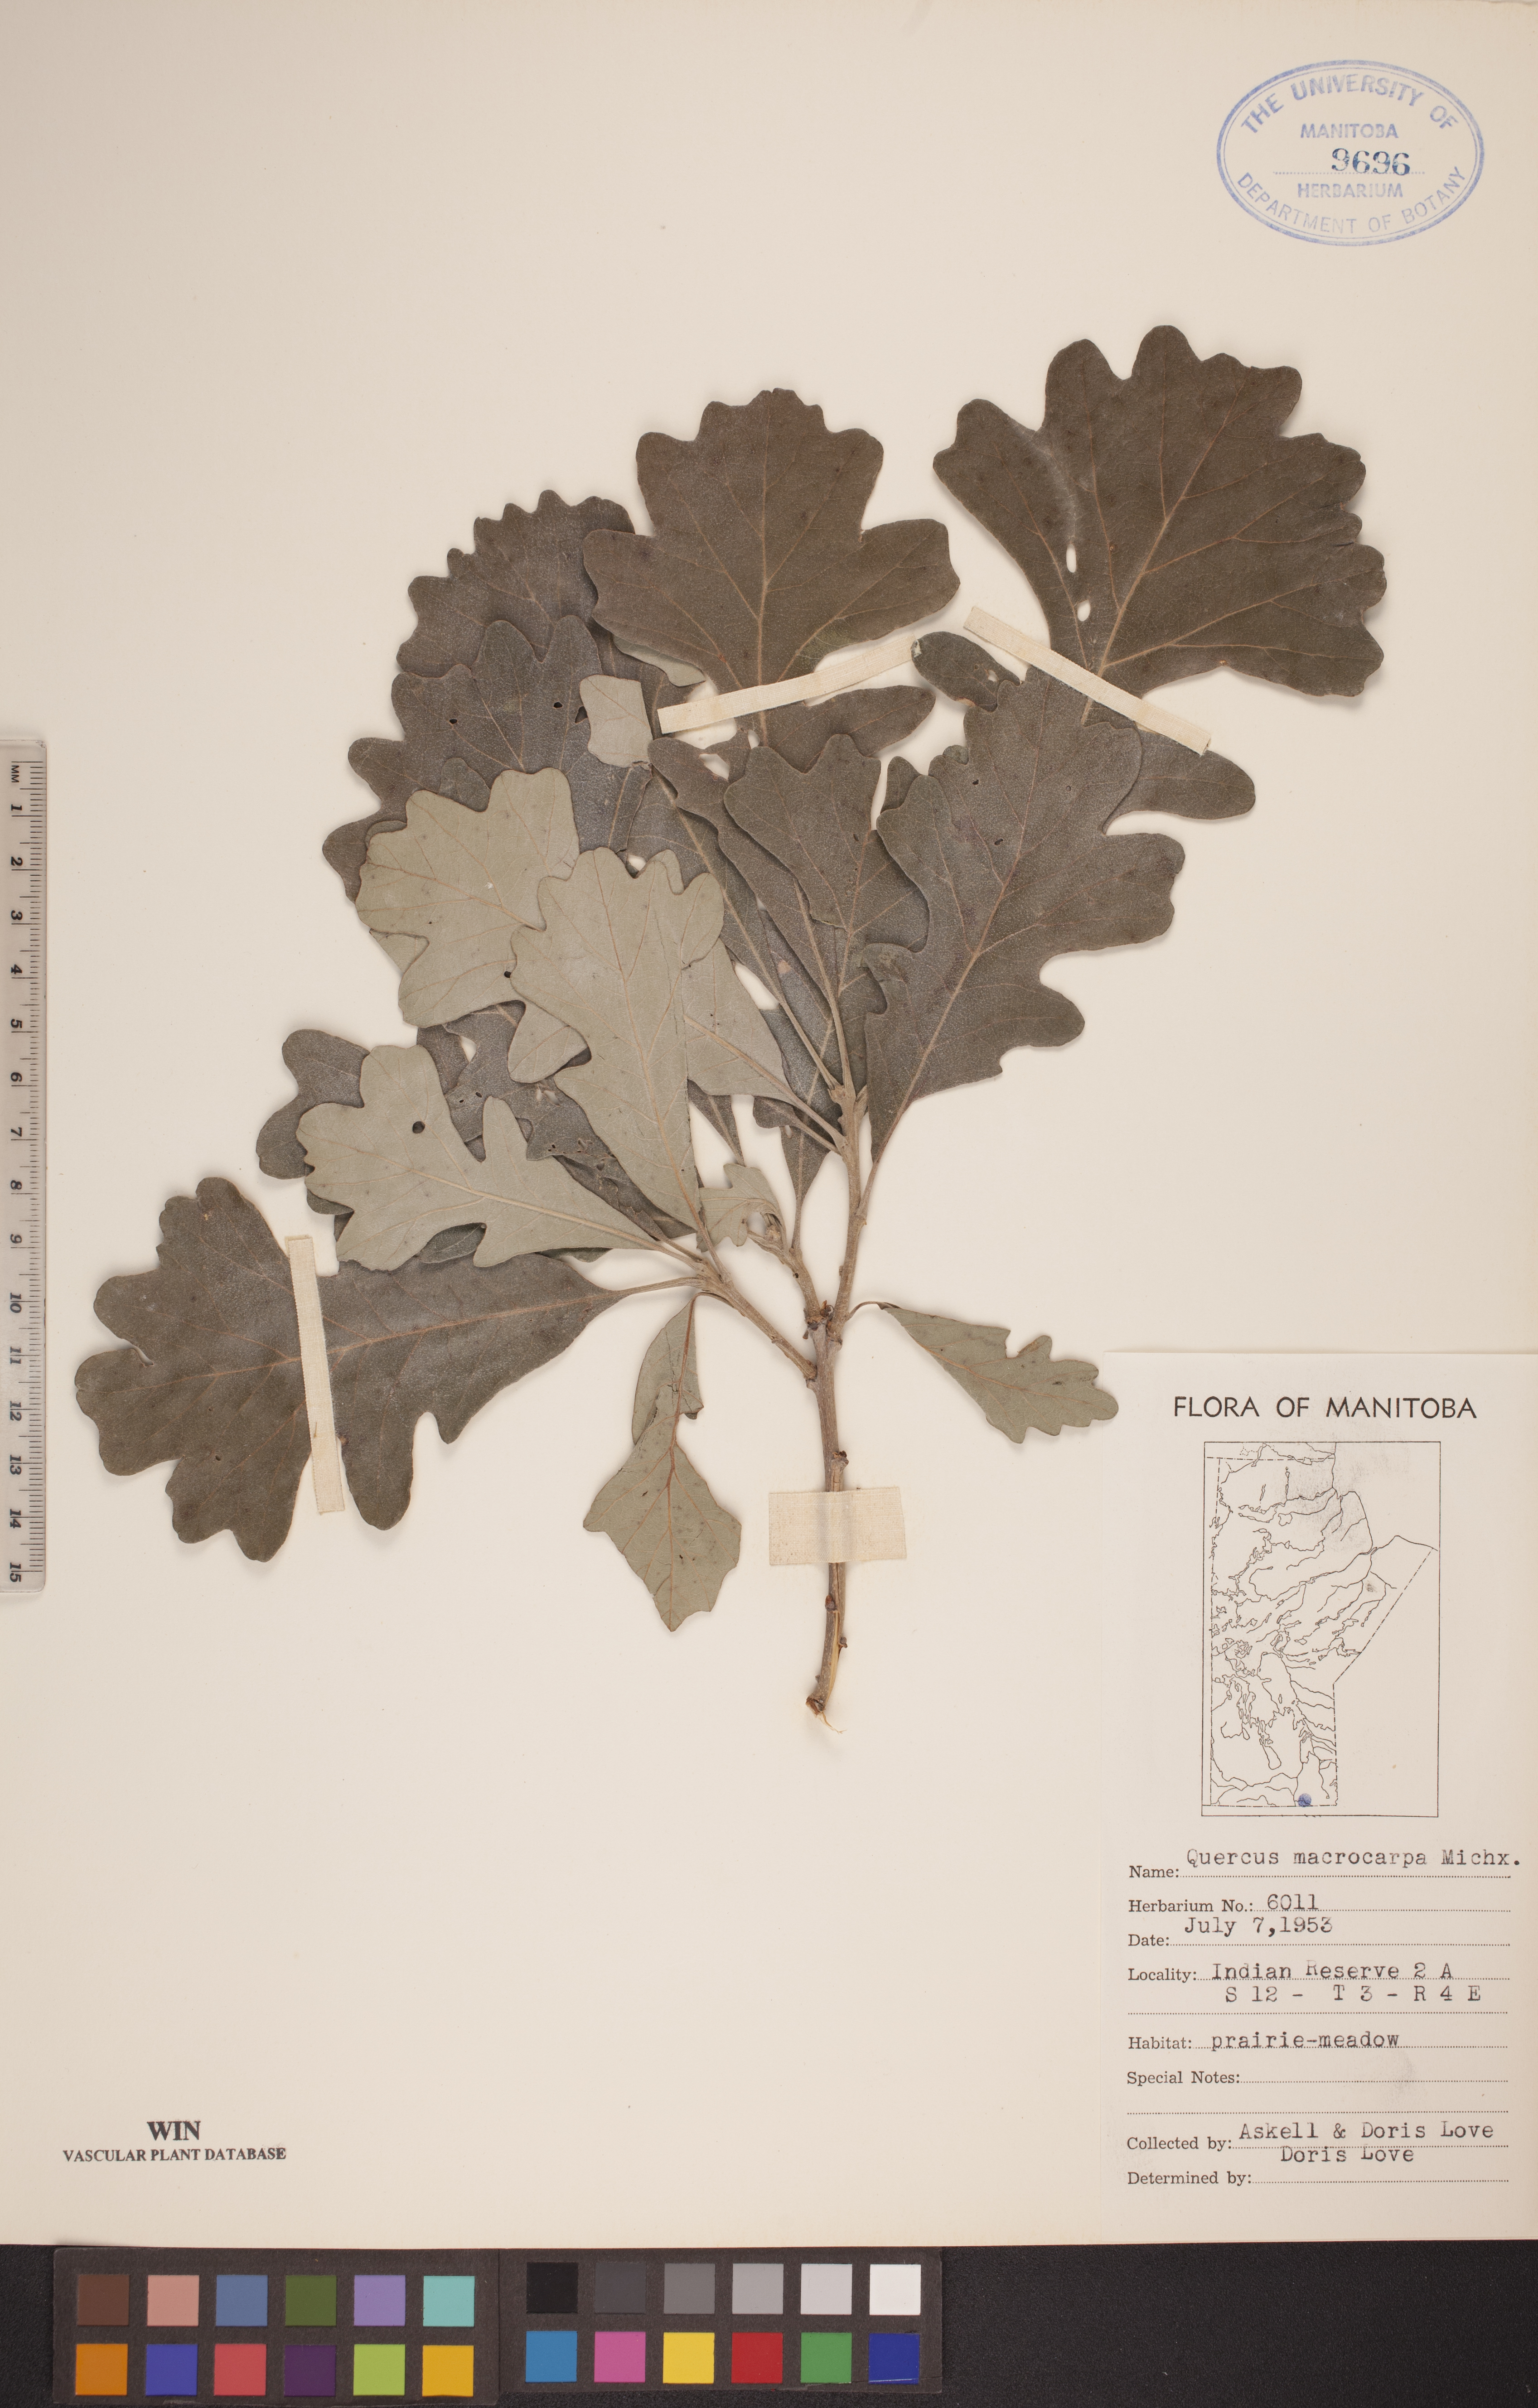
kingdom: Plantae
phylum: Tracheophyta
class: Magnoliopsida
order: Fagales
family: Fagaceae
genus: Quercus
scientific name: Quercus macrocarpa
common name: Bur oak
